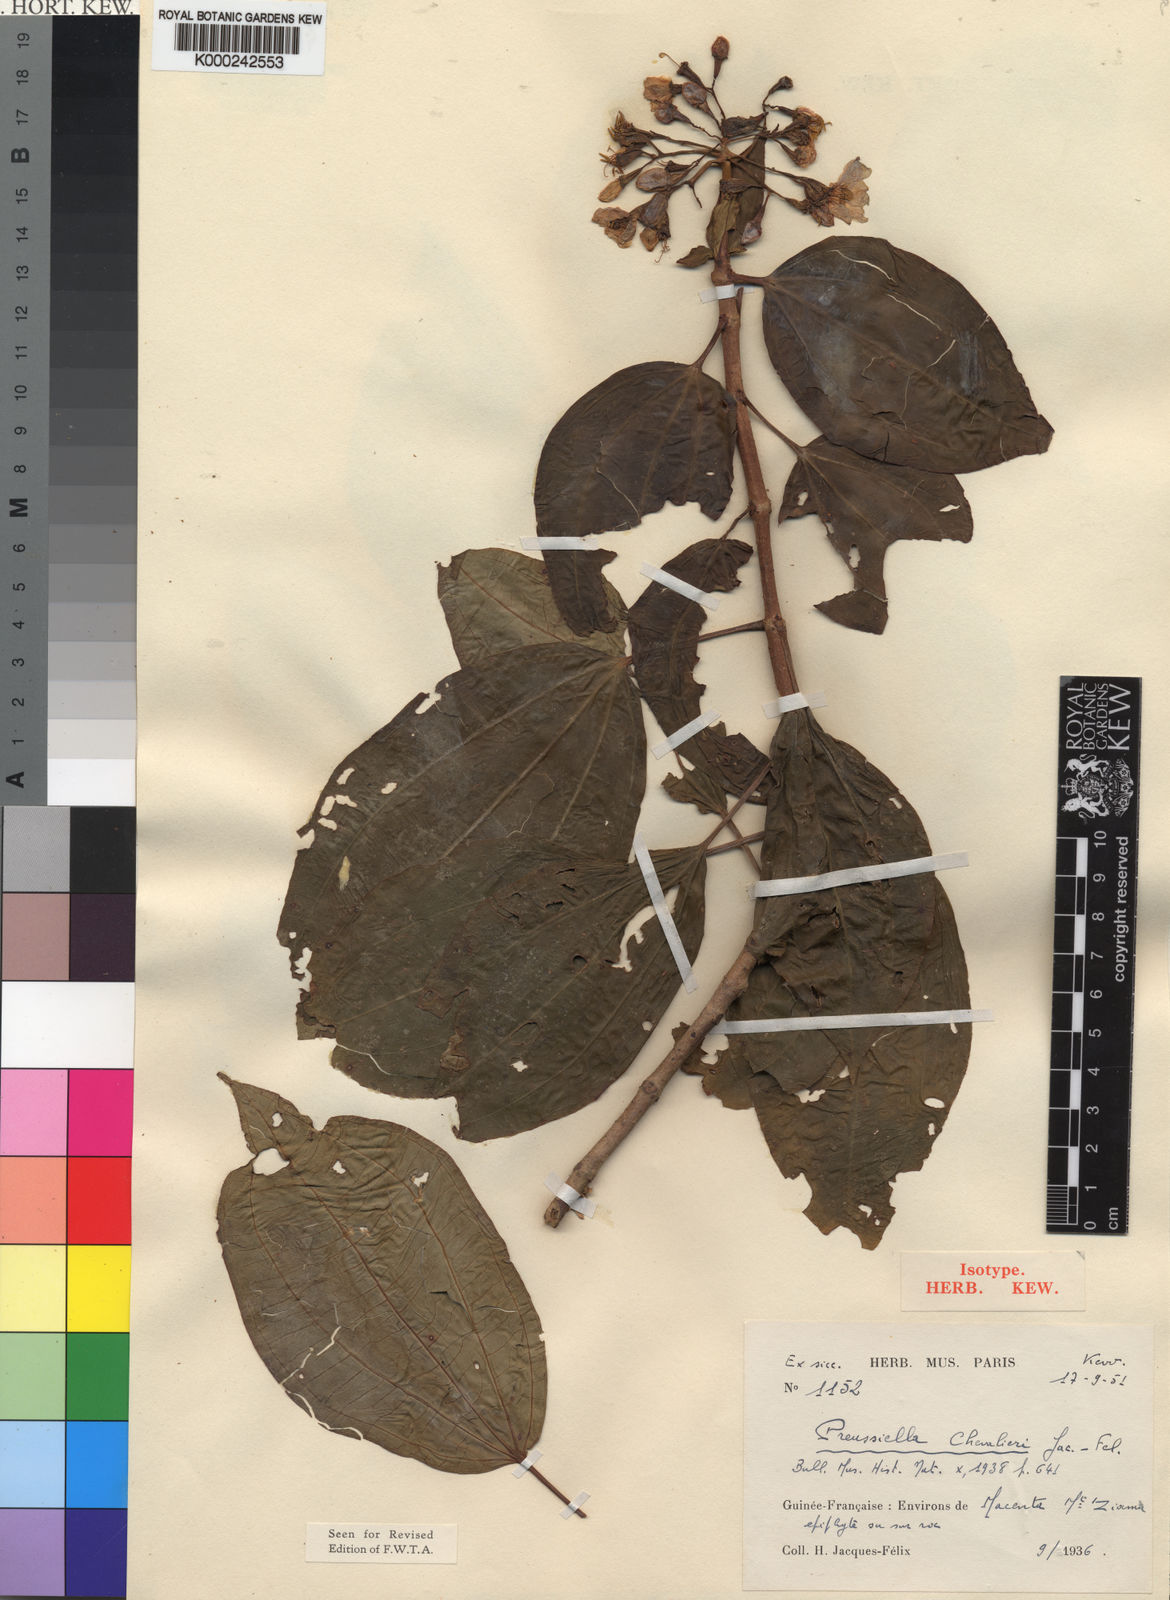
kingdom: Plantae
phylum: Tracheophyta
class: Magnoliopsida
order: Myrtales
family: Melastomataceae
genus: Preussiella
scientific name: Preussiella kamerunensis
